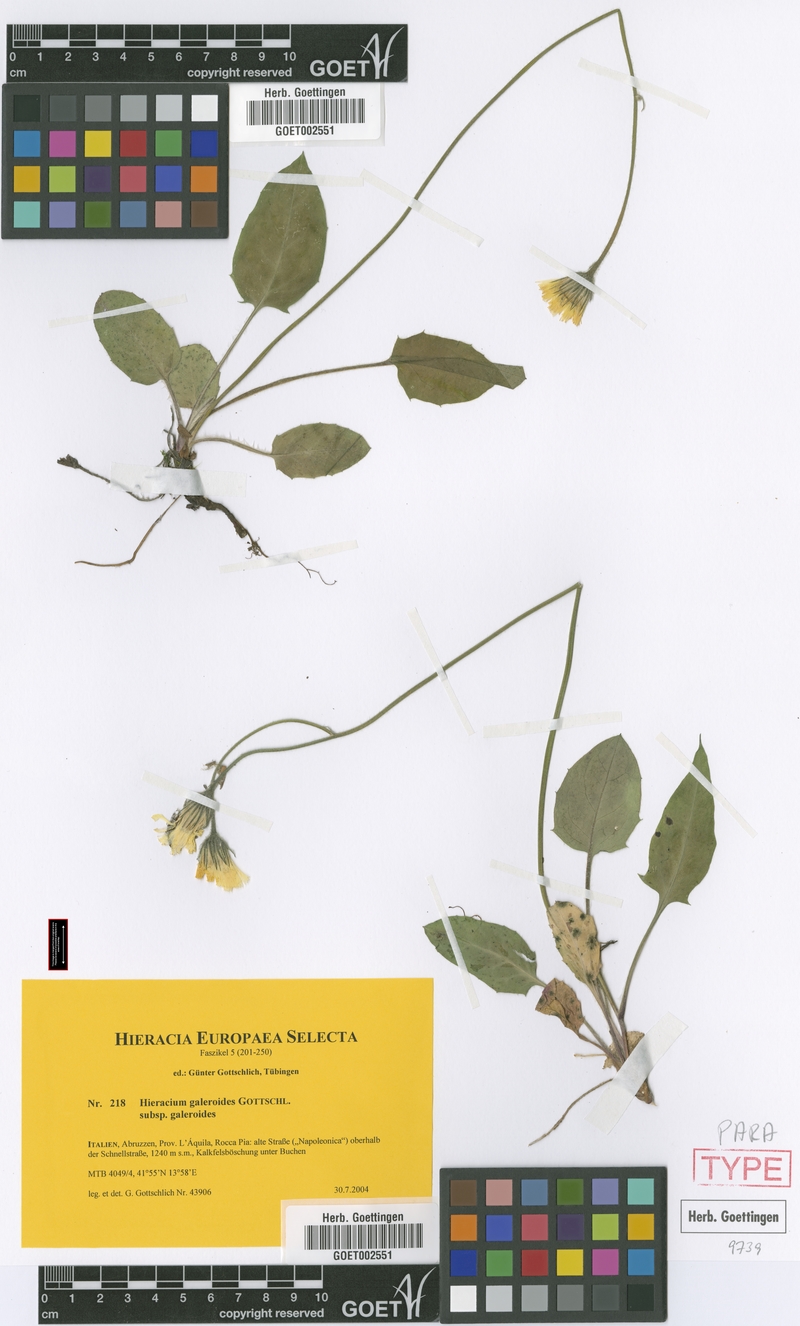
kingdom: Plantae
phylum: Tracheophyta
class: Magnoliopsida
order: Asterales
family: Asteraceae
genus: Hieracium
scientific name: Hieracium galeroides
